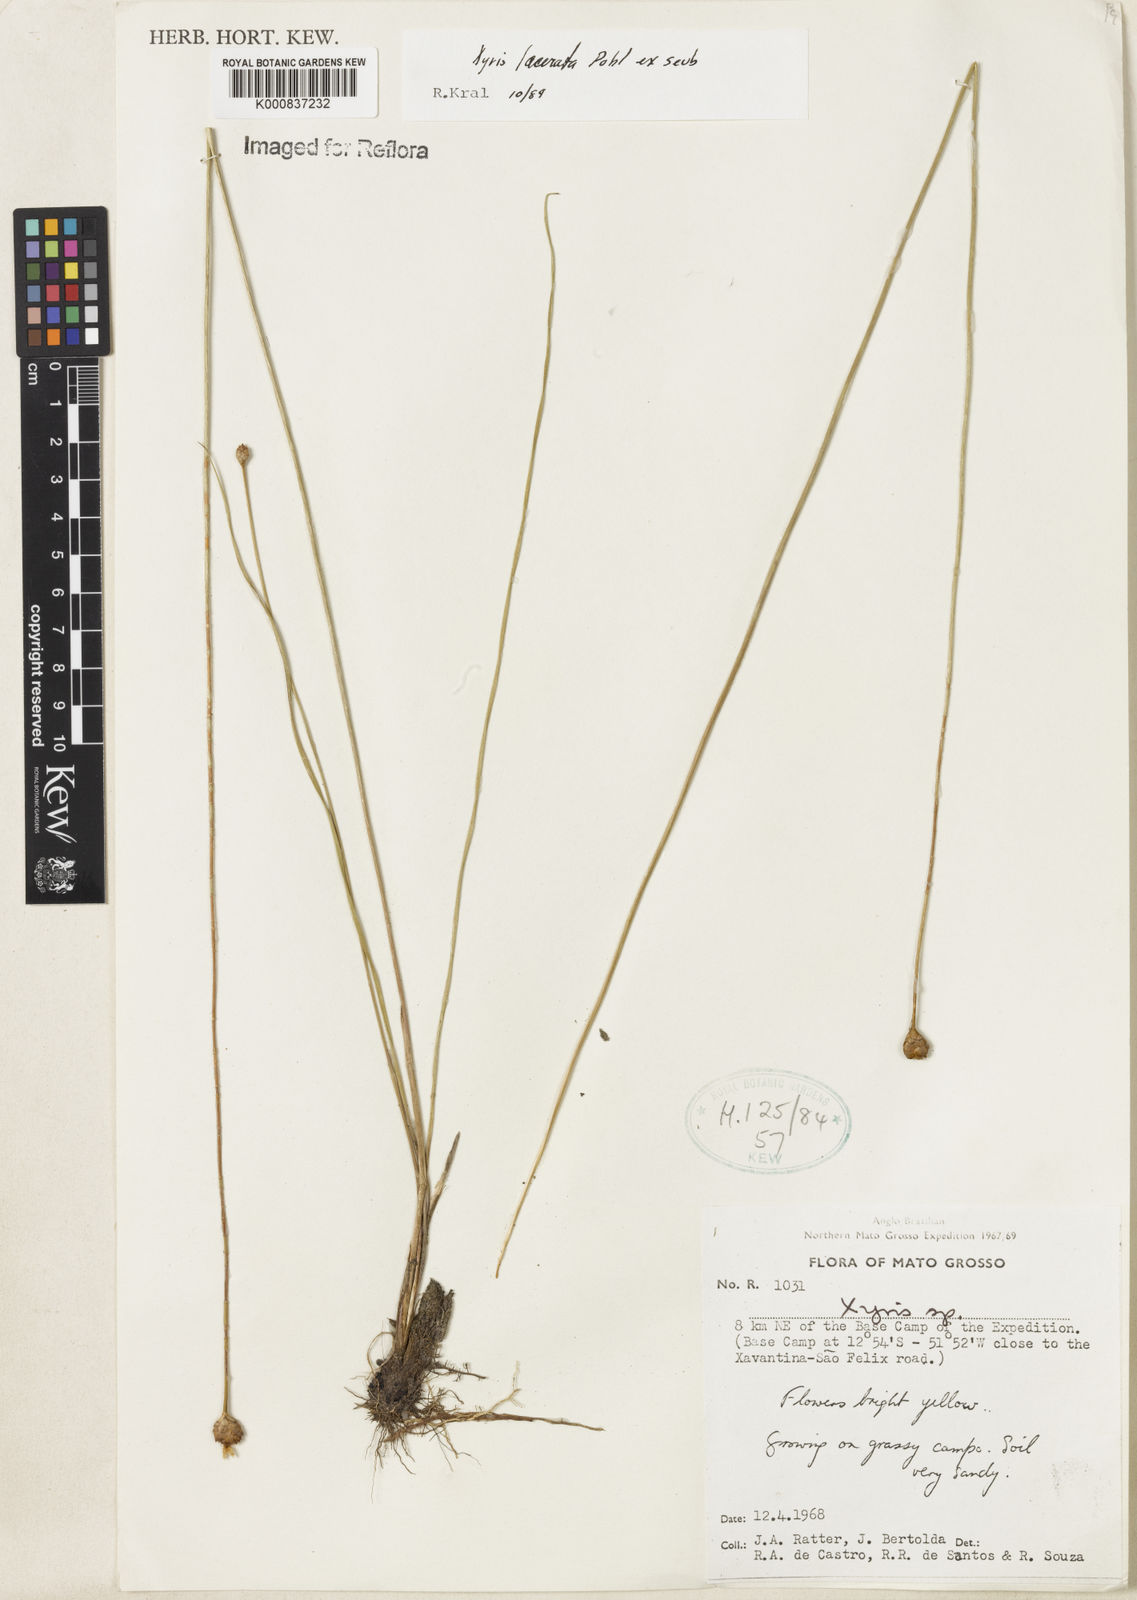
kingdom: Plantae
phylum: Tracheophyta
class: Liliopsida
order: Poales
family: Xyridaceae
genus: Xyris
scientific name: Xyris lacerata
